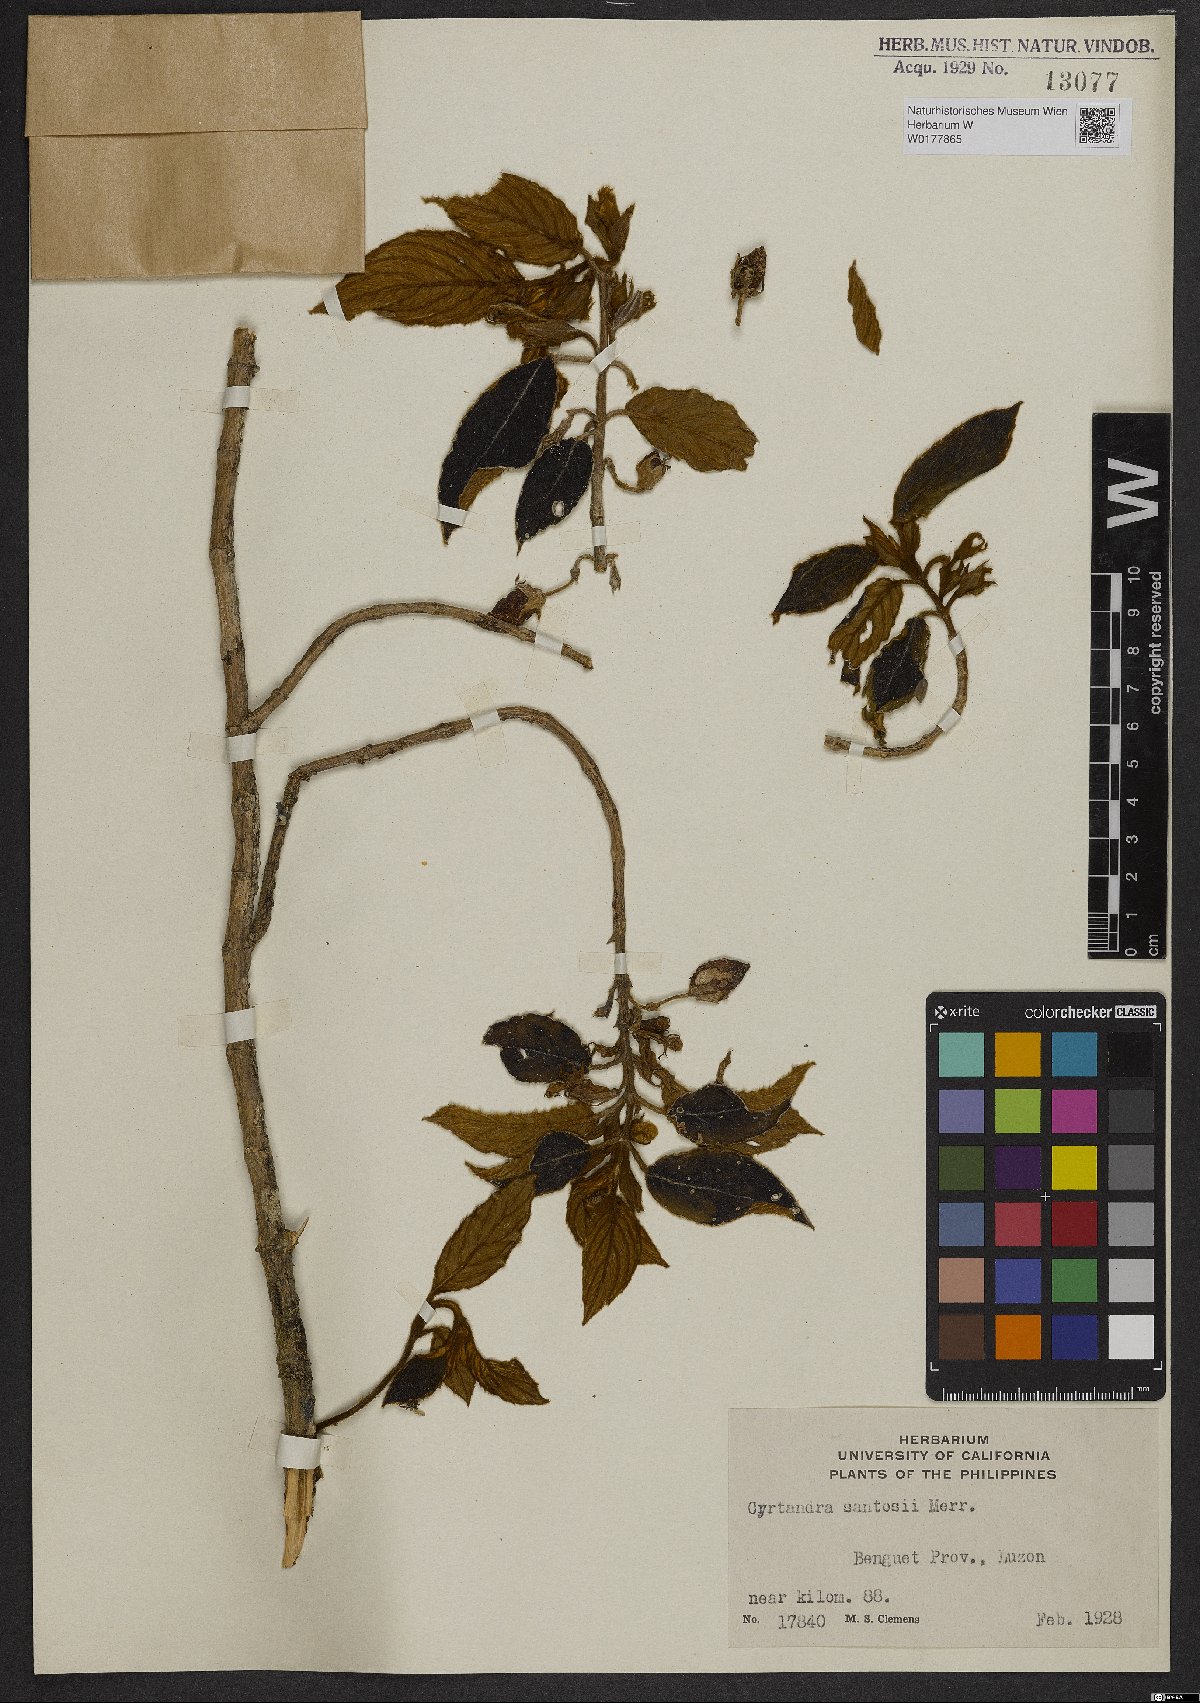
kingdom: Plantae
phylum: Tracheophyta
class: Magnoliopsida
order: Lamiales
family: Gesneriaceae
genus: Cyrtandra
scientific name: Cyrtandra
